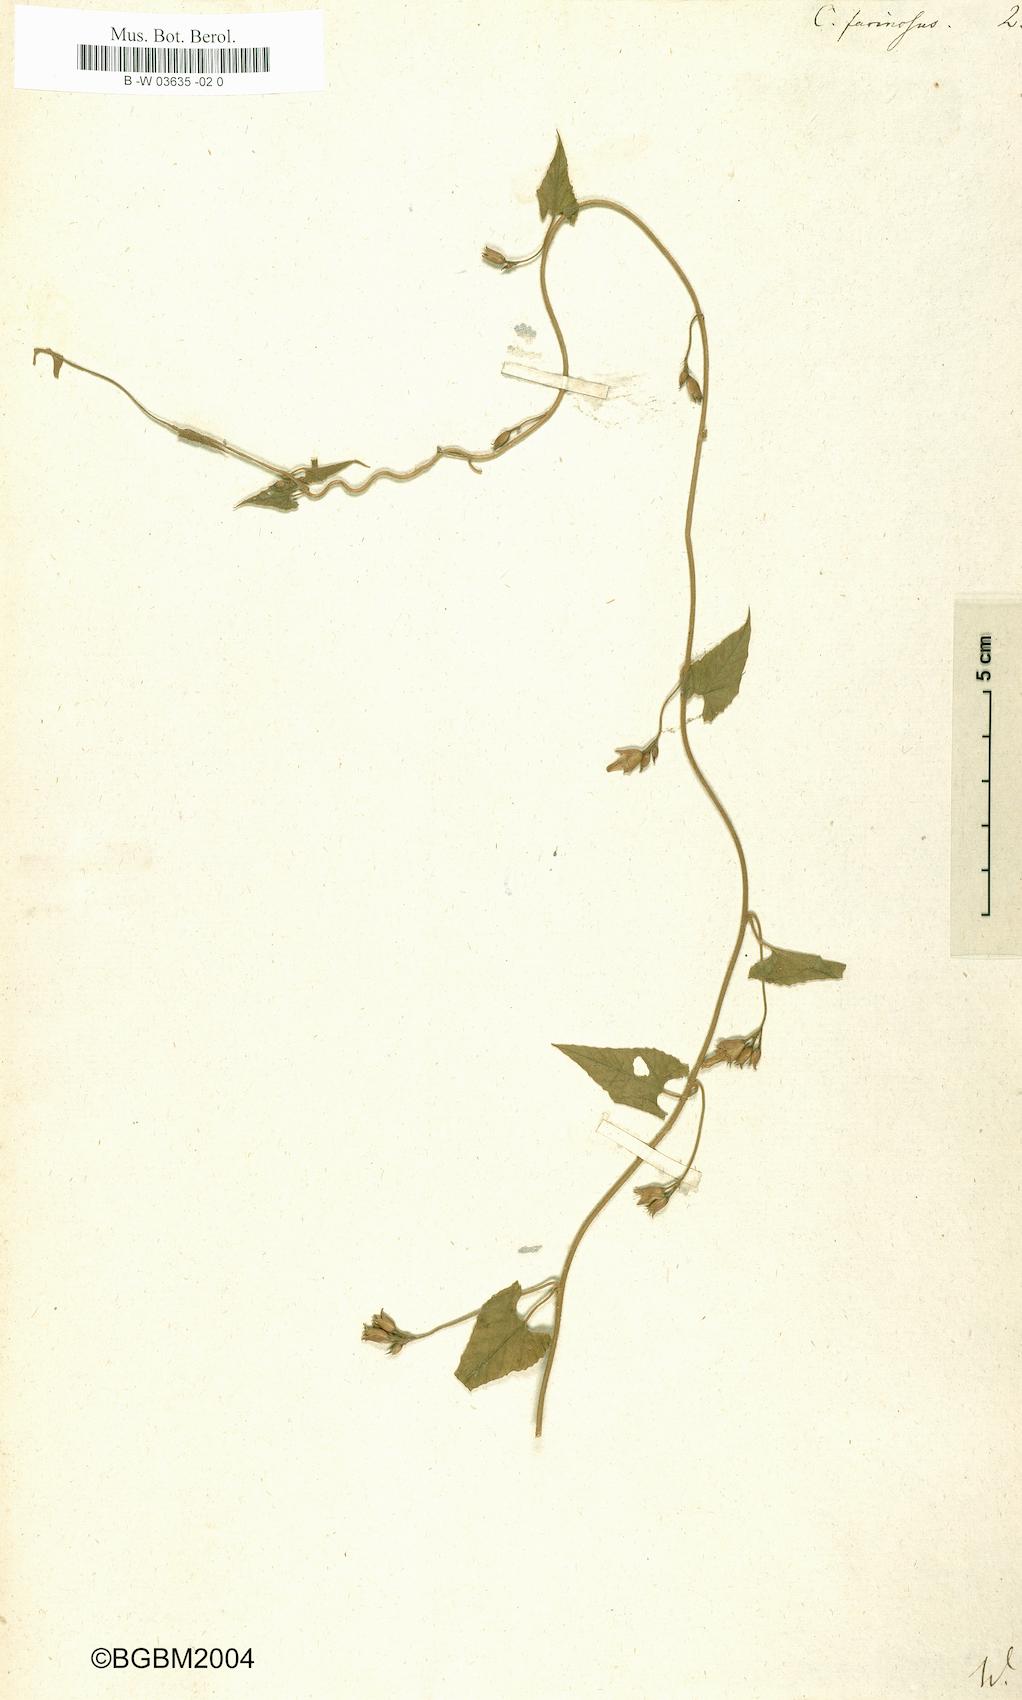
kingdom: Plantae
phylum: Tracheophyta
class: Magnoliopsida
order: Solanales
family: Convolvulaceae
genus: Convolvulus
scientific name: Convolvulus farinosus
